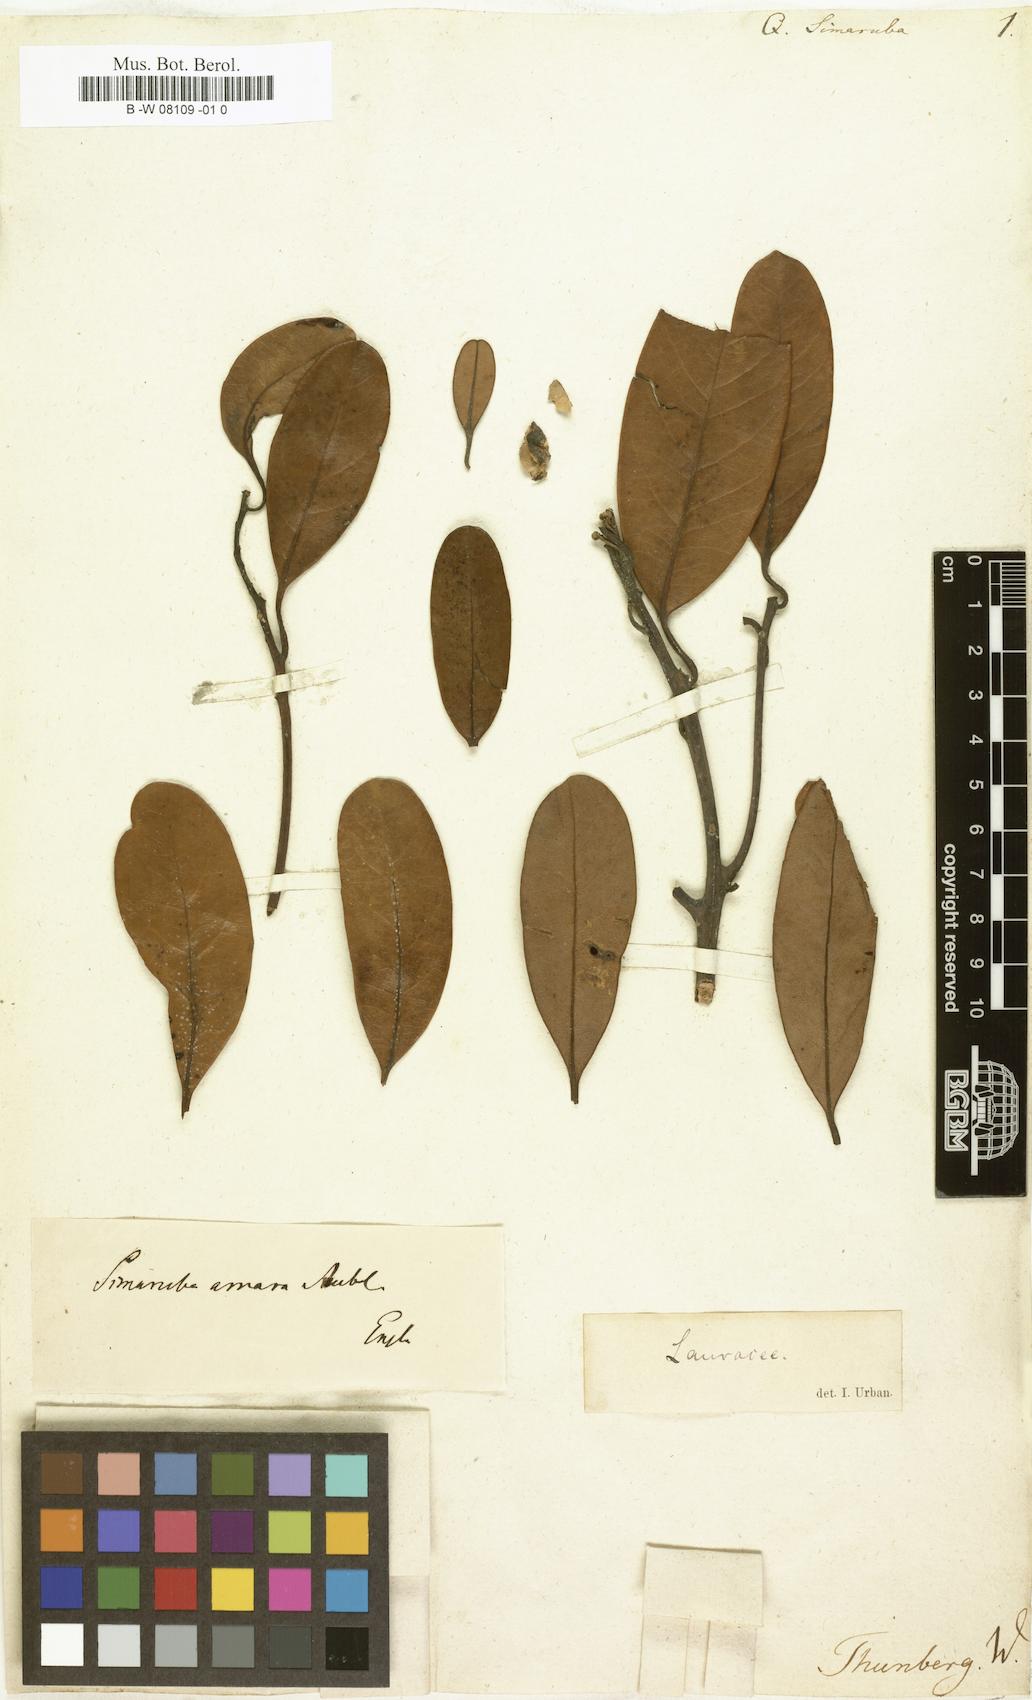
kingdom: Plantae
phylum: Tracheophyta
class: Magnoliopsida
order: Sapindales
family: Simaroubaceae
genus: Simarouba
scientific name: Simarouba amara
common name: Bitterwood
